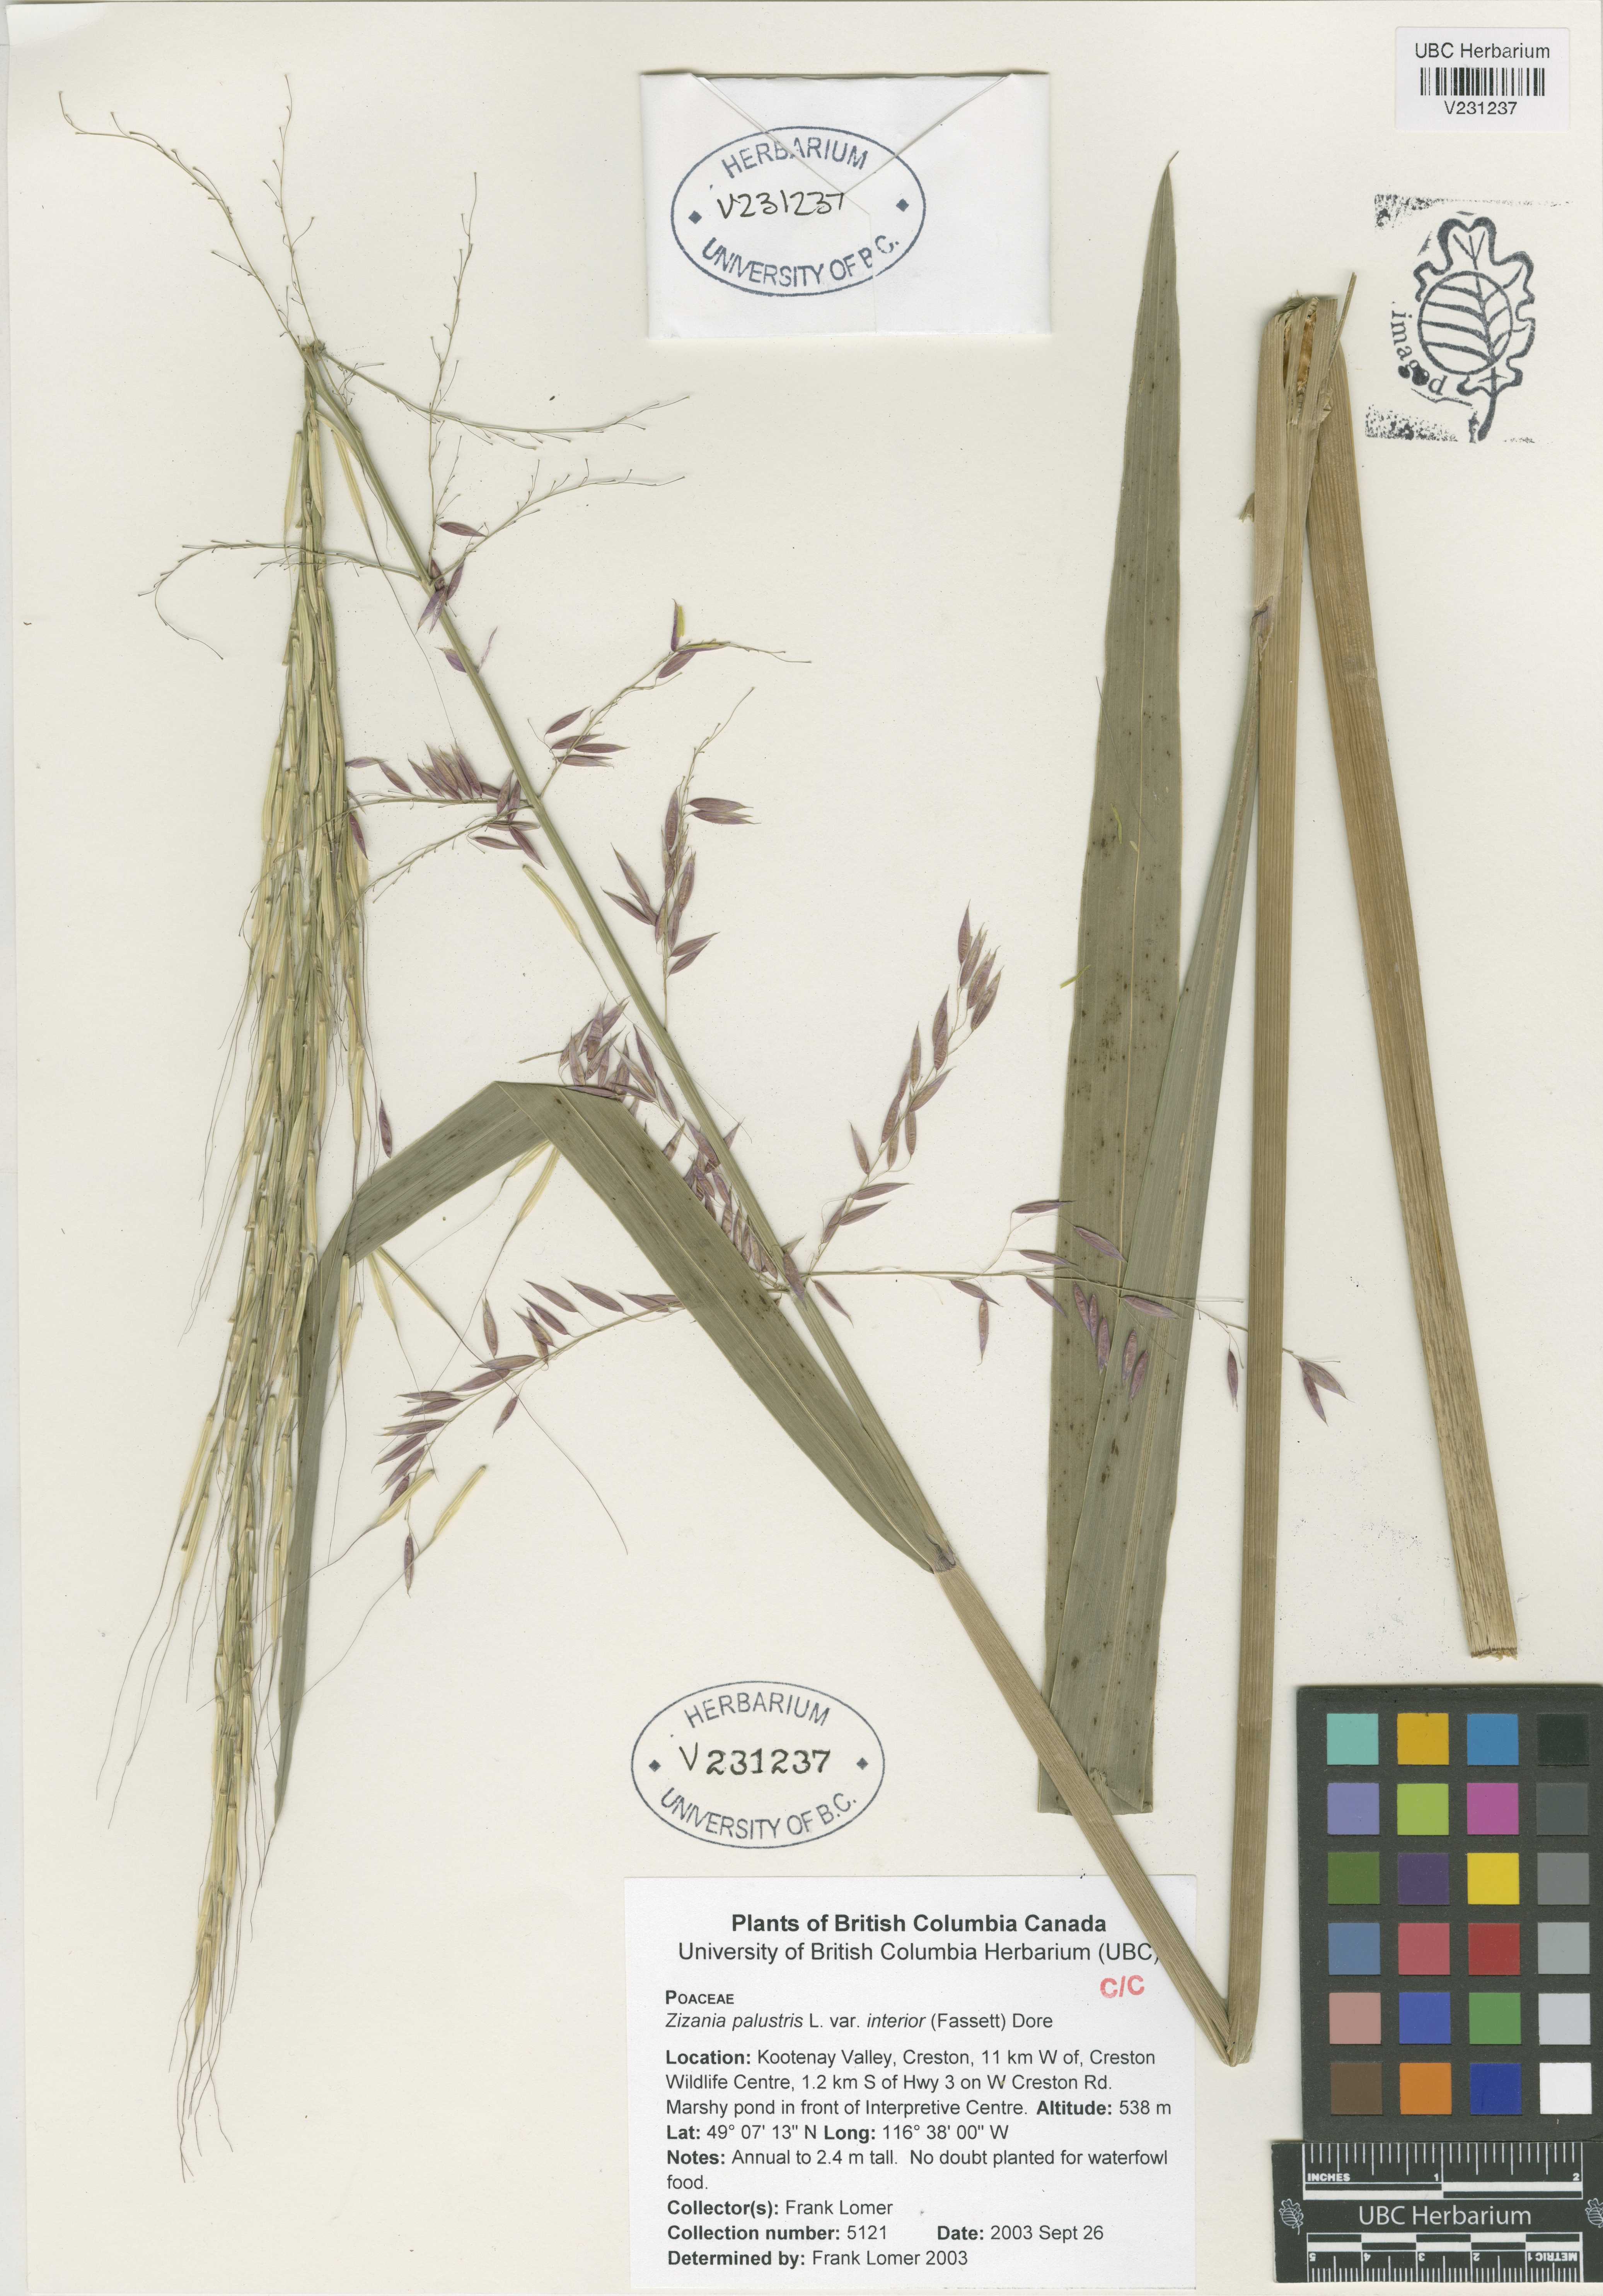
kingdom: Plantae
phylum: Tracheophyta
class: Liliopsida
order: Poales
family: Poaceae
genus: Zizania
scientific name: Zizania aquatica
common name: Annual wildrice
